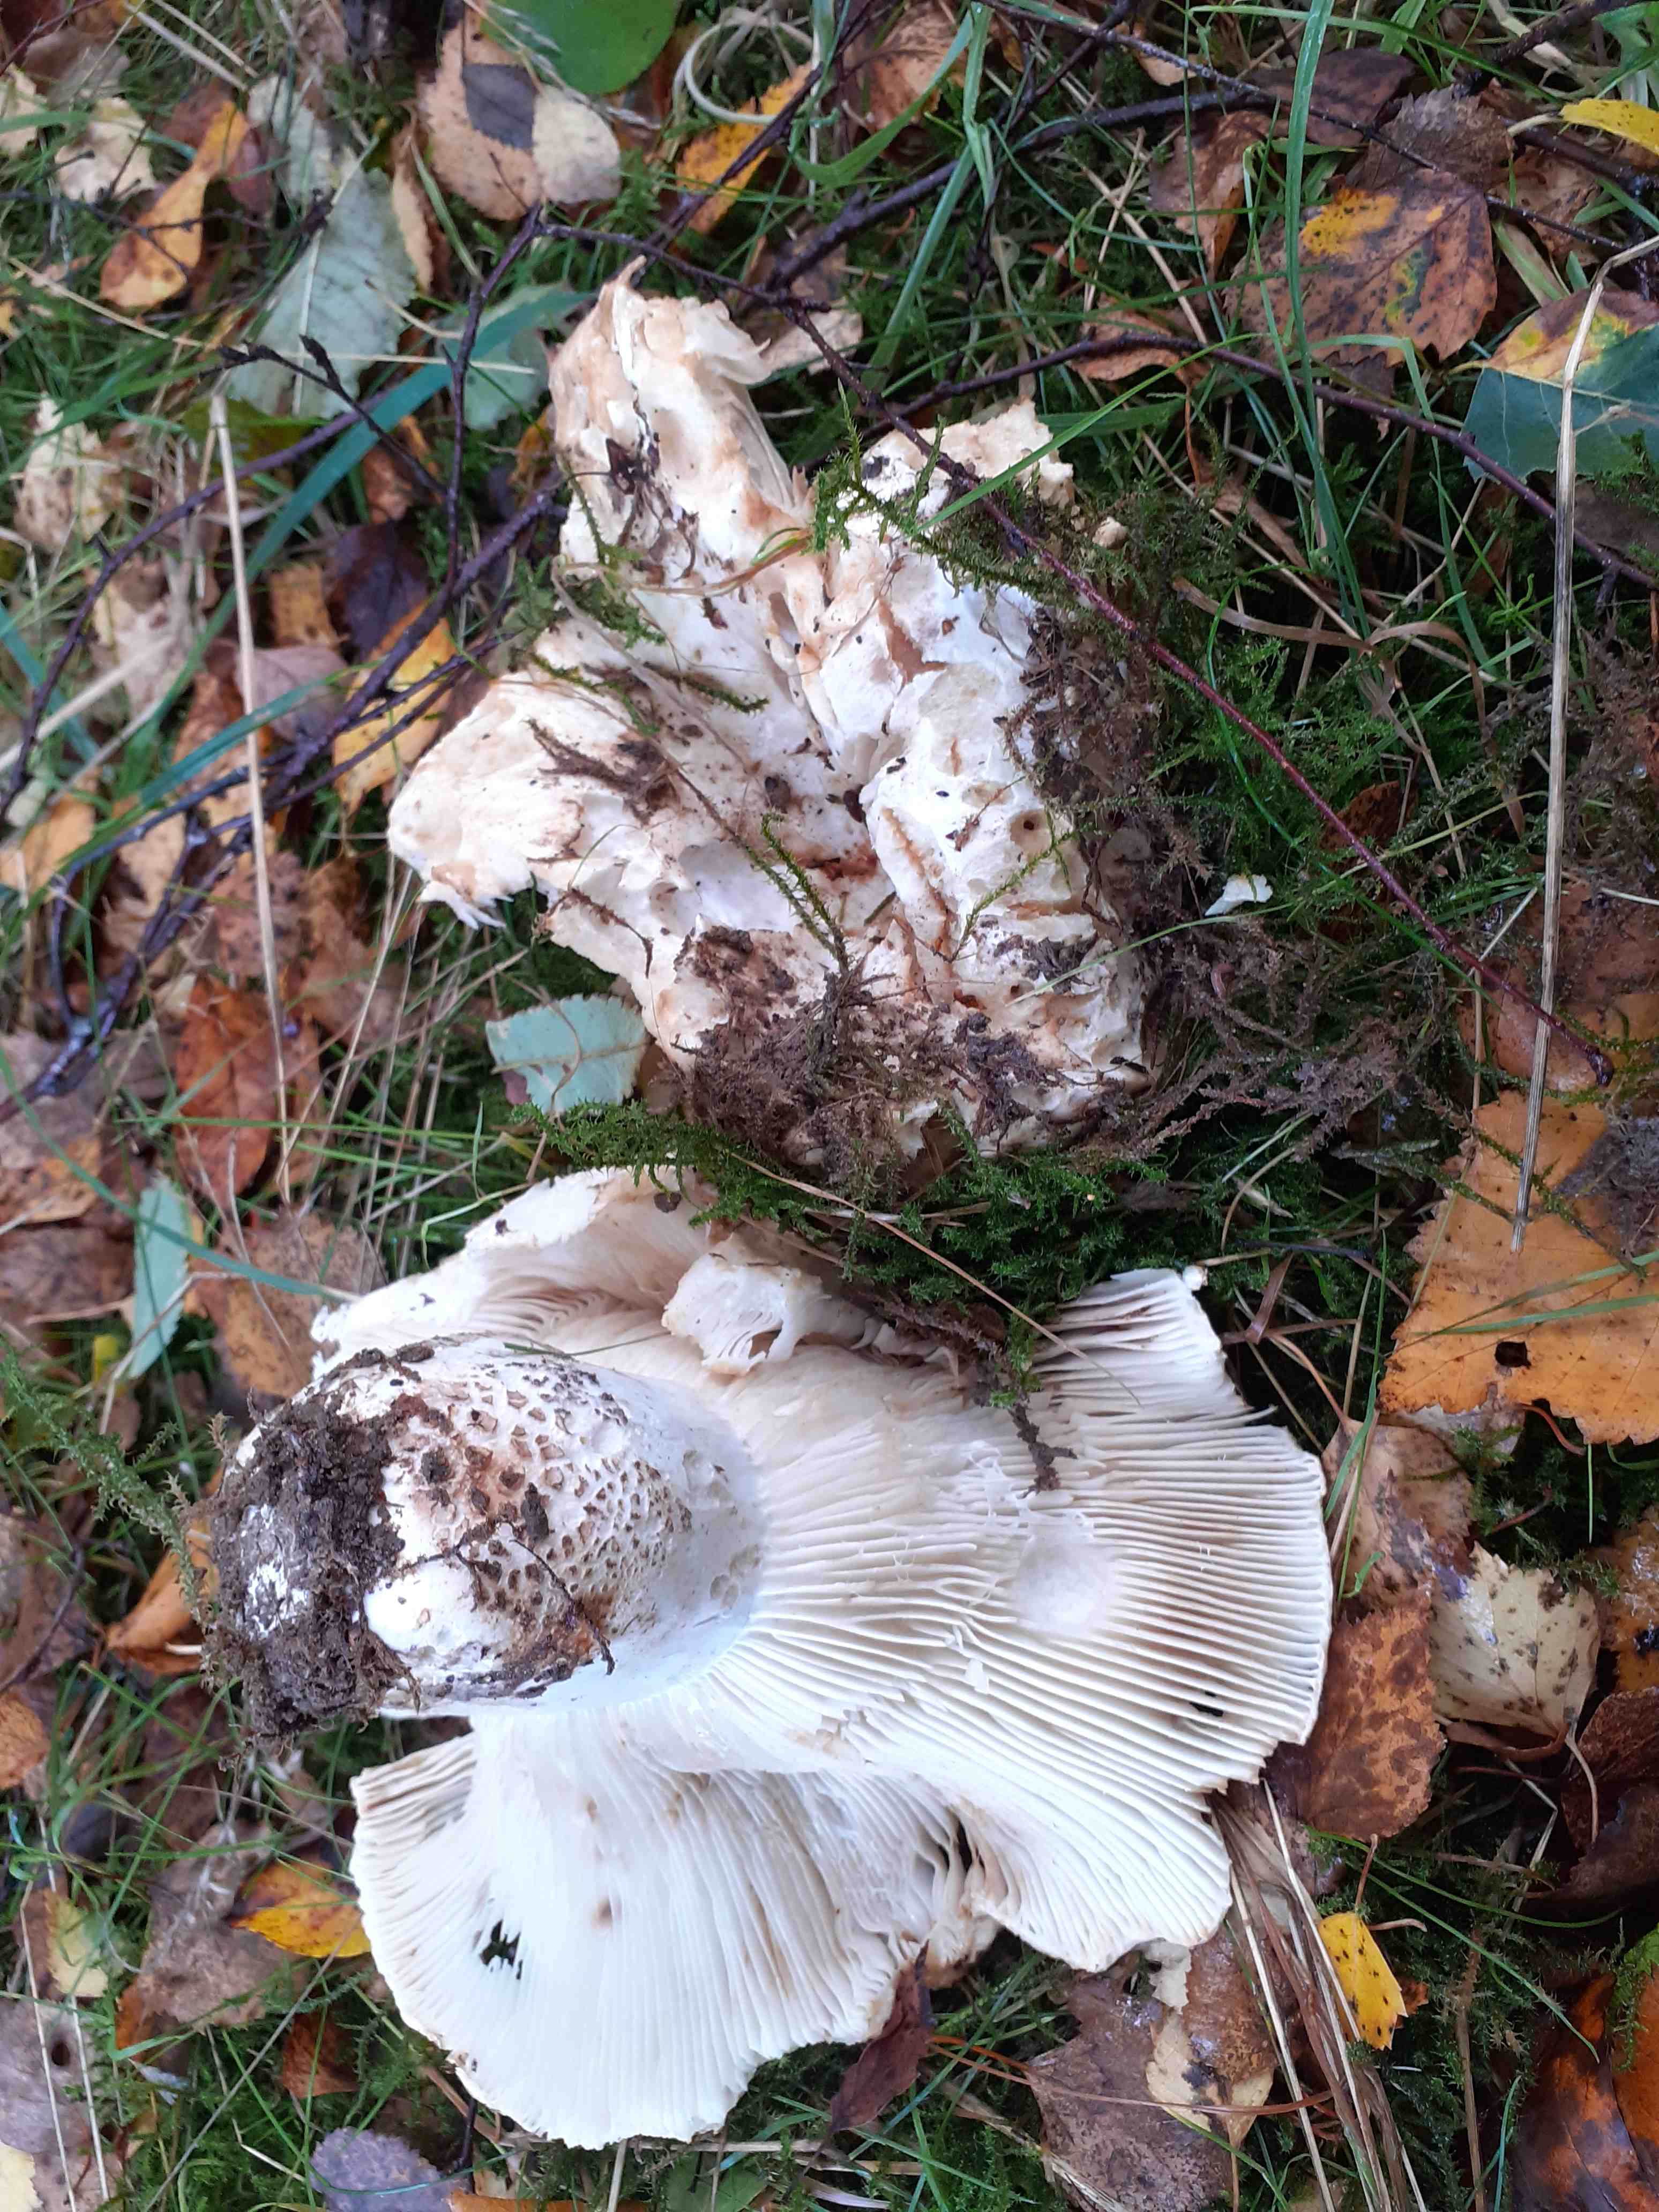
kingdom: Fungi
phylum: Basidiomycota
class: Agaricomycetes
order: Russulales
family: Russulaceae
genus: Russula
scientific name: Russula delica
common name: almindelig tragt-skørhat
